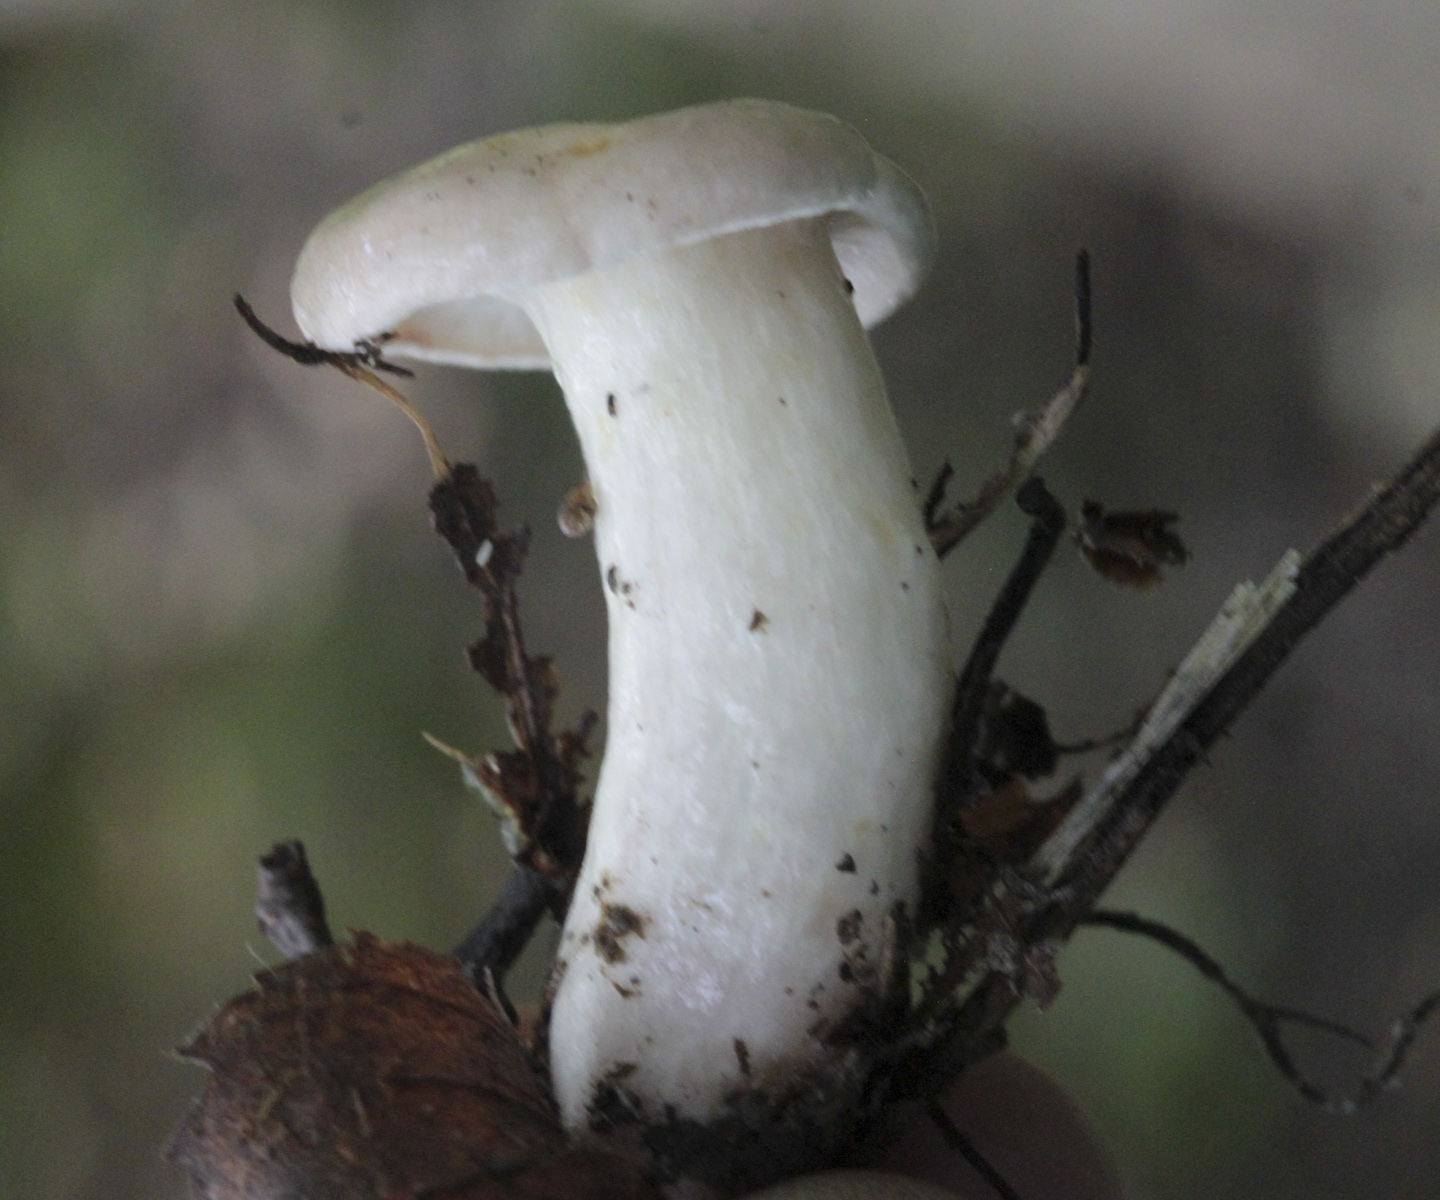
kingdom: Fungi
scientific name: Fungi
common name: Fungi
